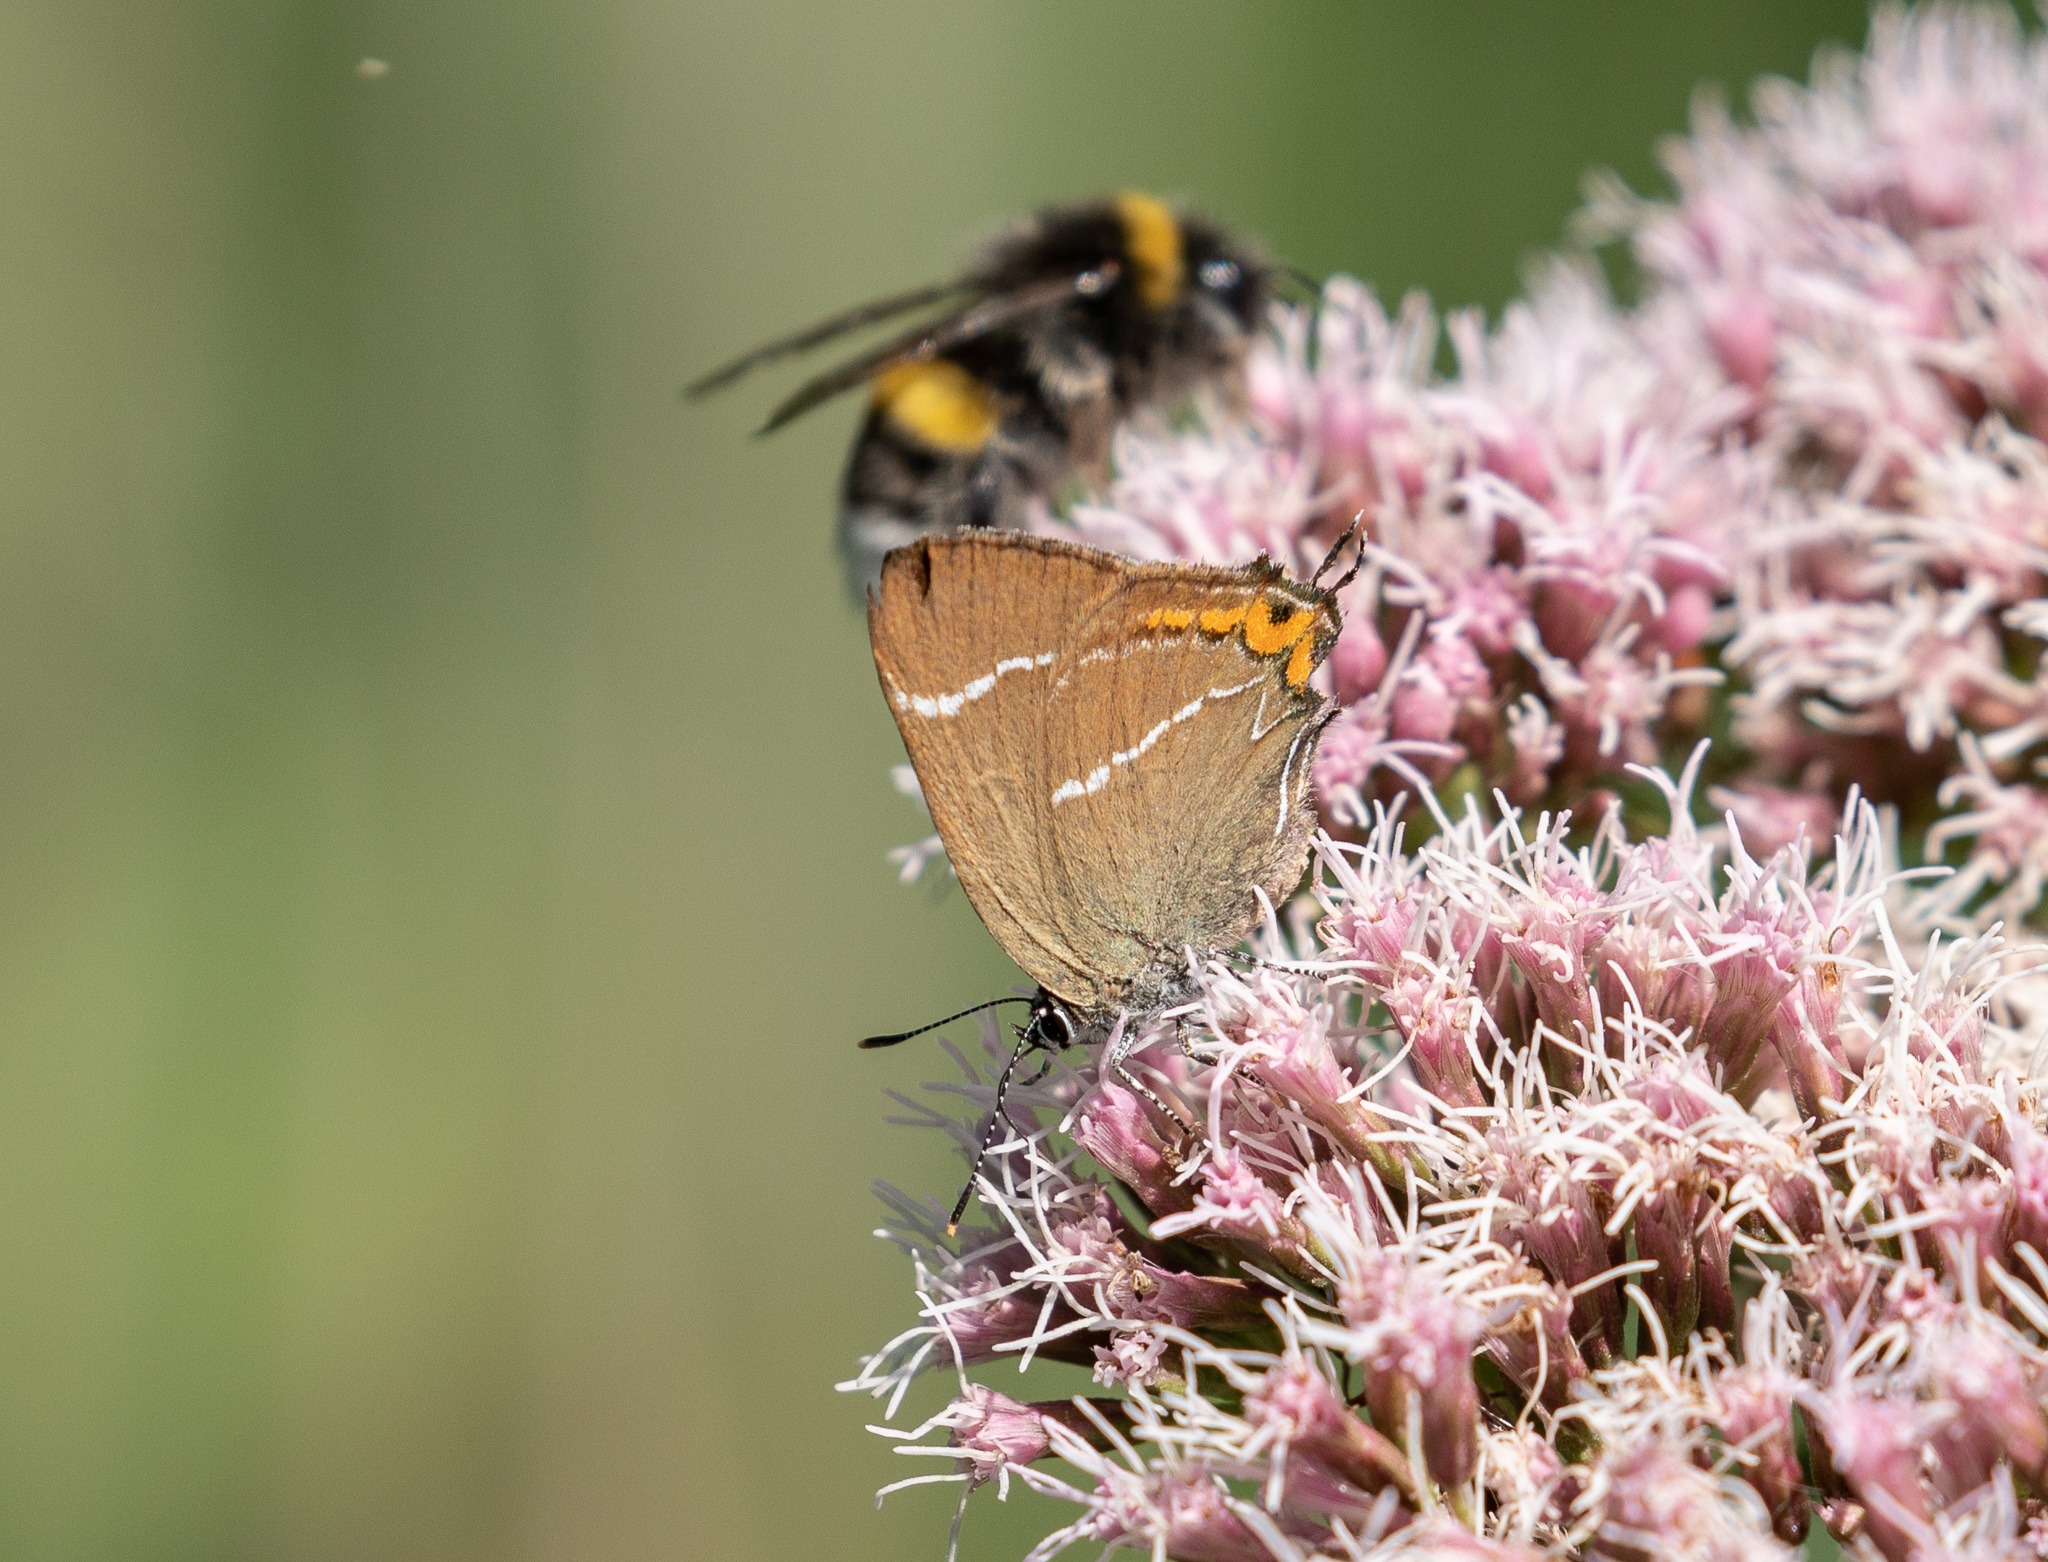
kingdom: Animalia
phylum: Arthropoda
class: Insecta
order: Lepidoptera
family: Lycaenidae
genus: Satyrium
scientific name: Satyrium w-album
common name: Det hvide W
